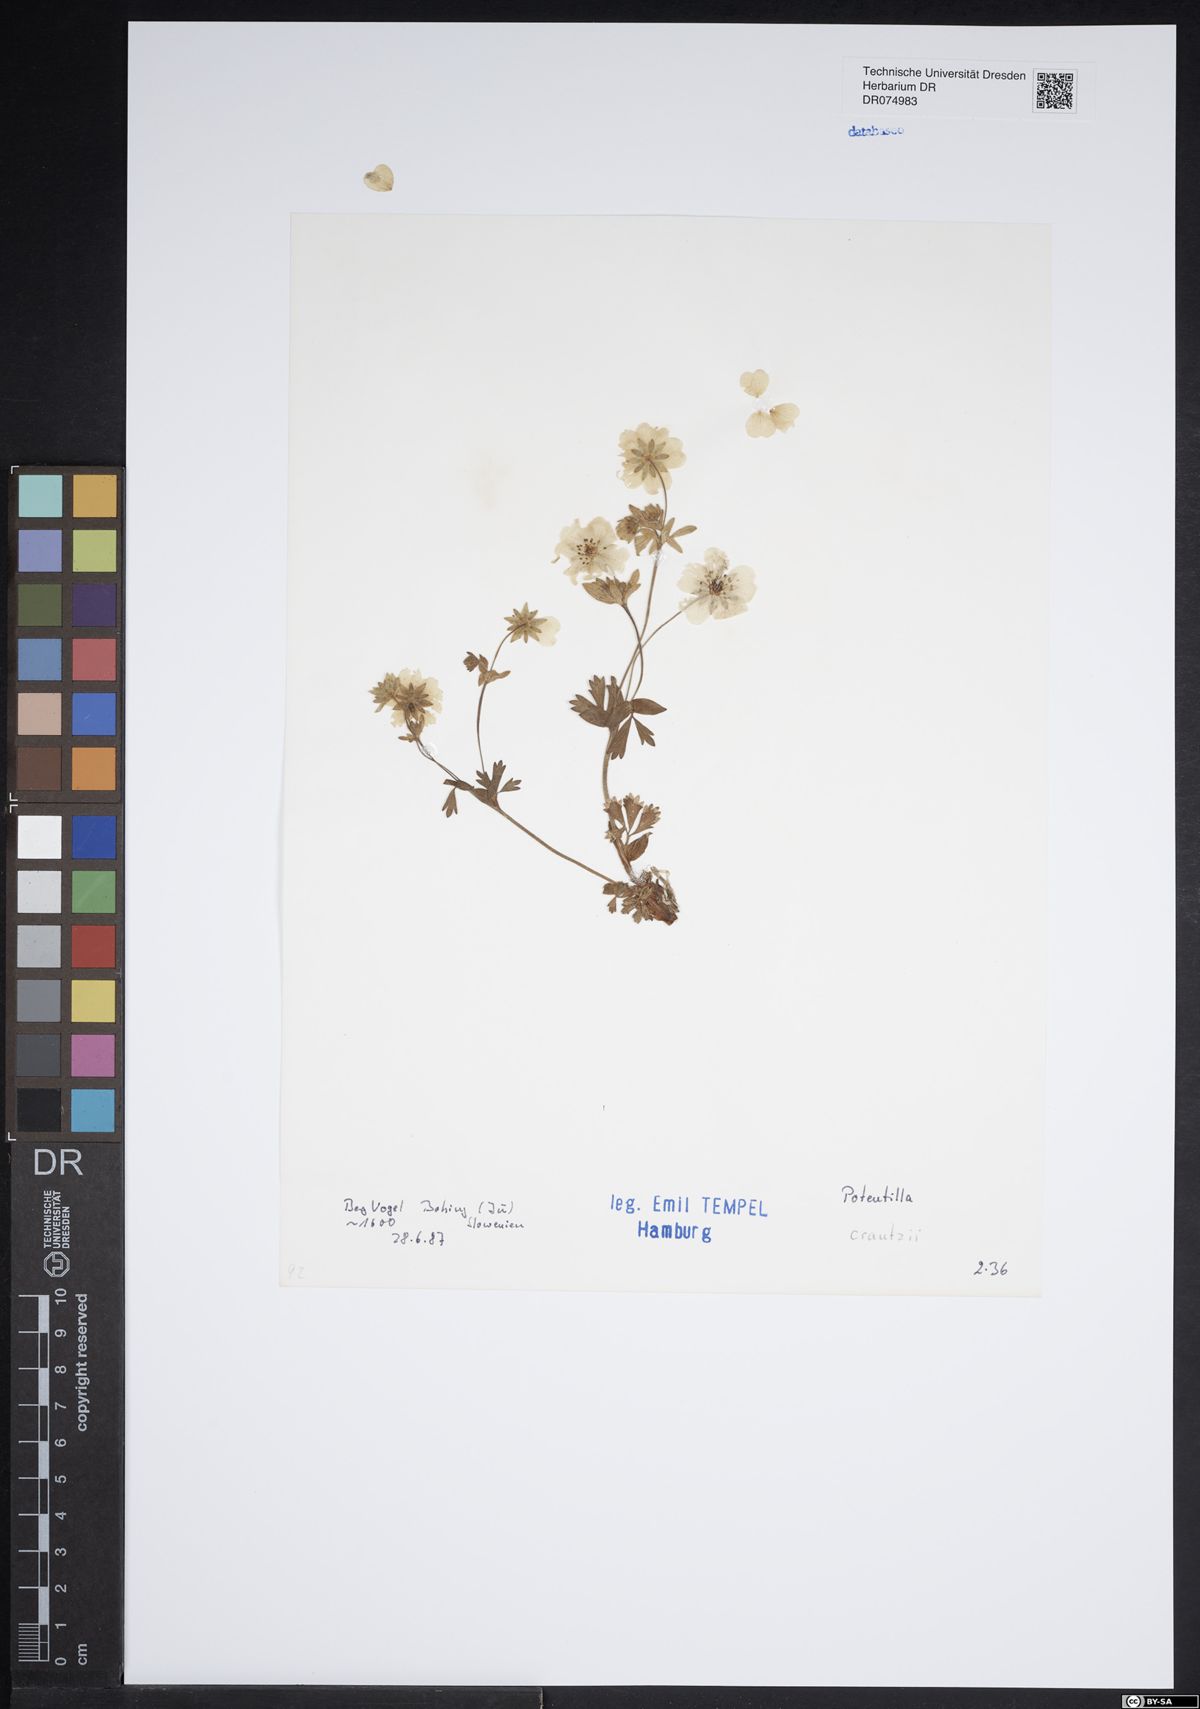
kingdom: Plantae
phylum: Tracheophyta
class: Magnoliopsida
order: Rosales
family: Rosaceae
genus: Potentilla
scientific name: Potentilla crantzii
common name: Alpine cinquefoil
